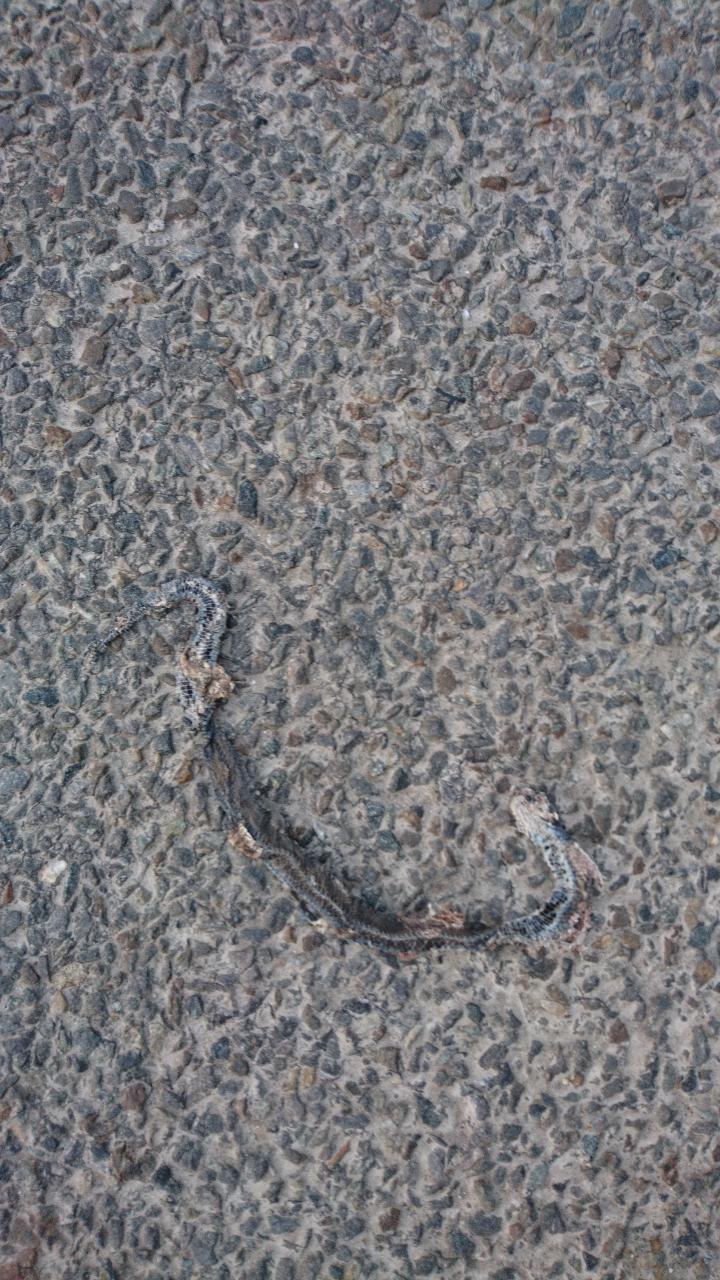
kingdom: Animalia
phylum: Chordata
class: Squamata
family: Colubridae
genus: Natrix
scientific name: Natrix natrix
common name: Grass snake
